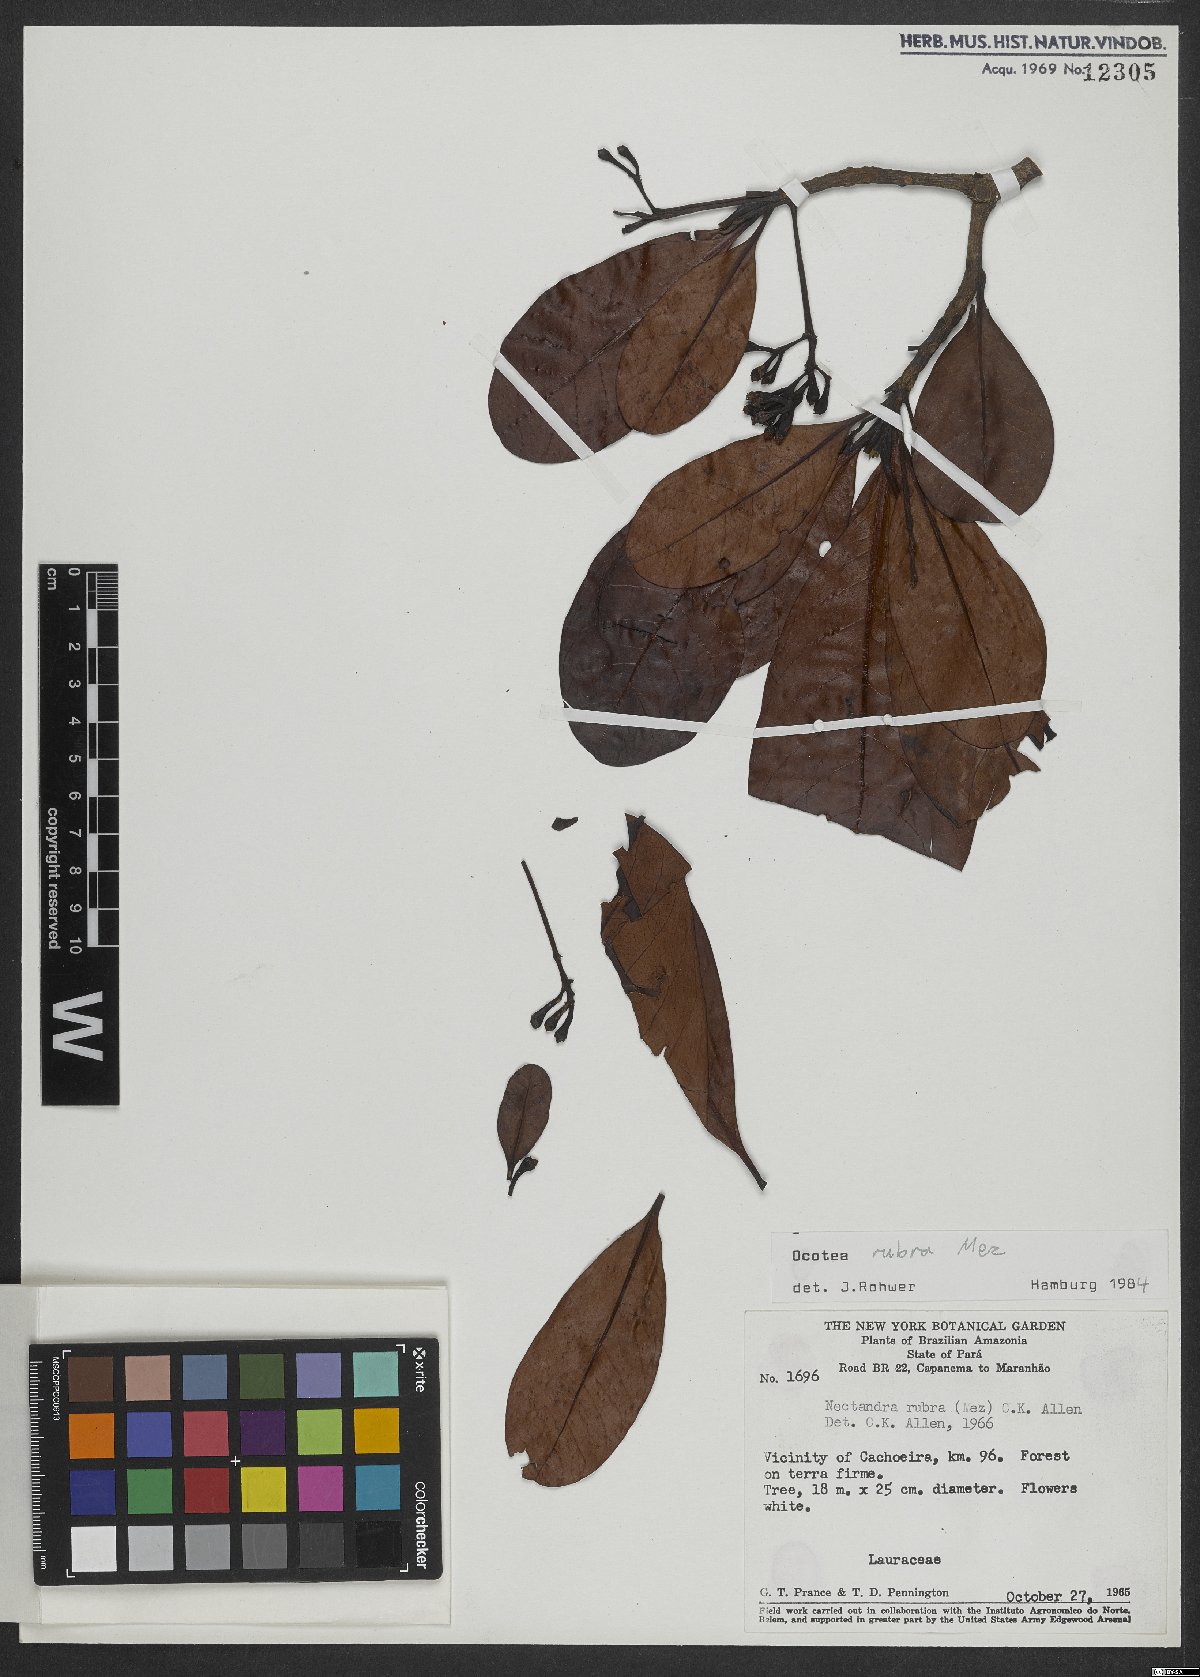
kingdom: Plantae
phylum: Tracheophyta
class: Magnoliopsida
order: Laurales
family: Lauraceae
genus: Sextonia
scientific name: Sextonia rubra
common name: Red louro
